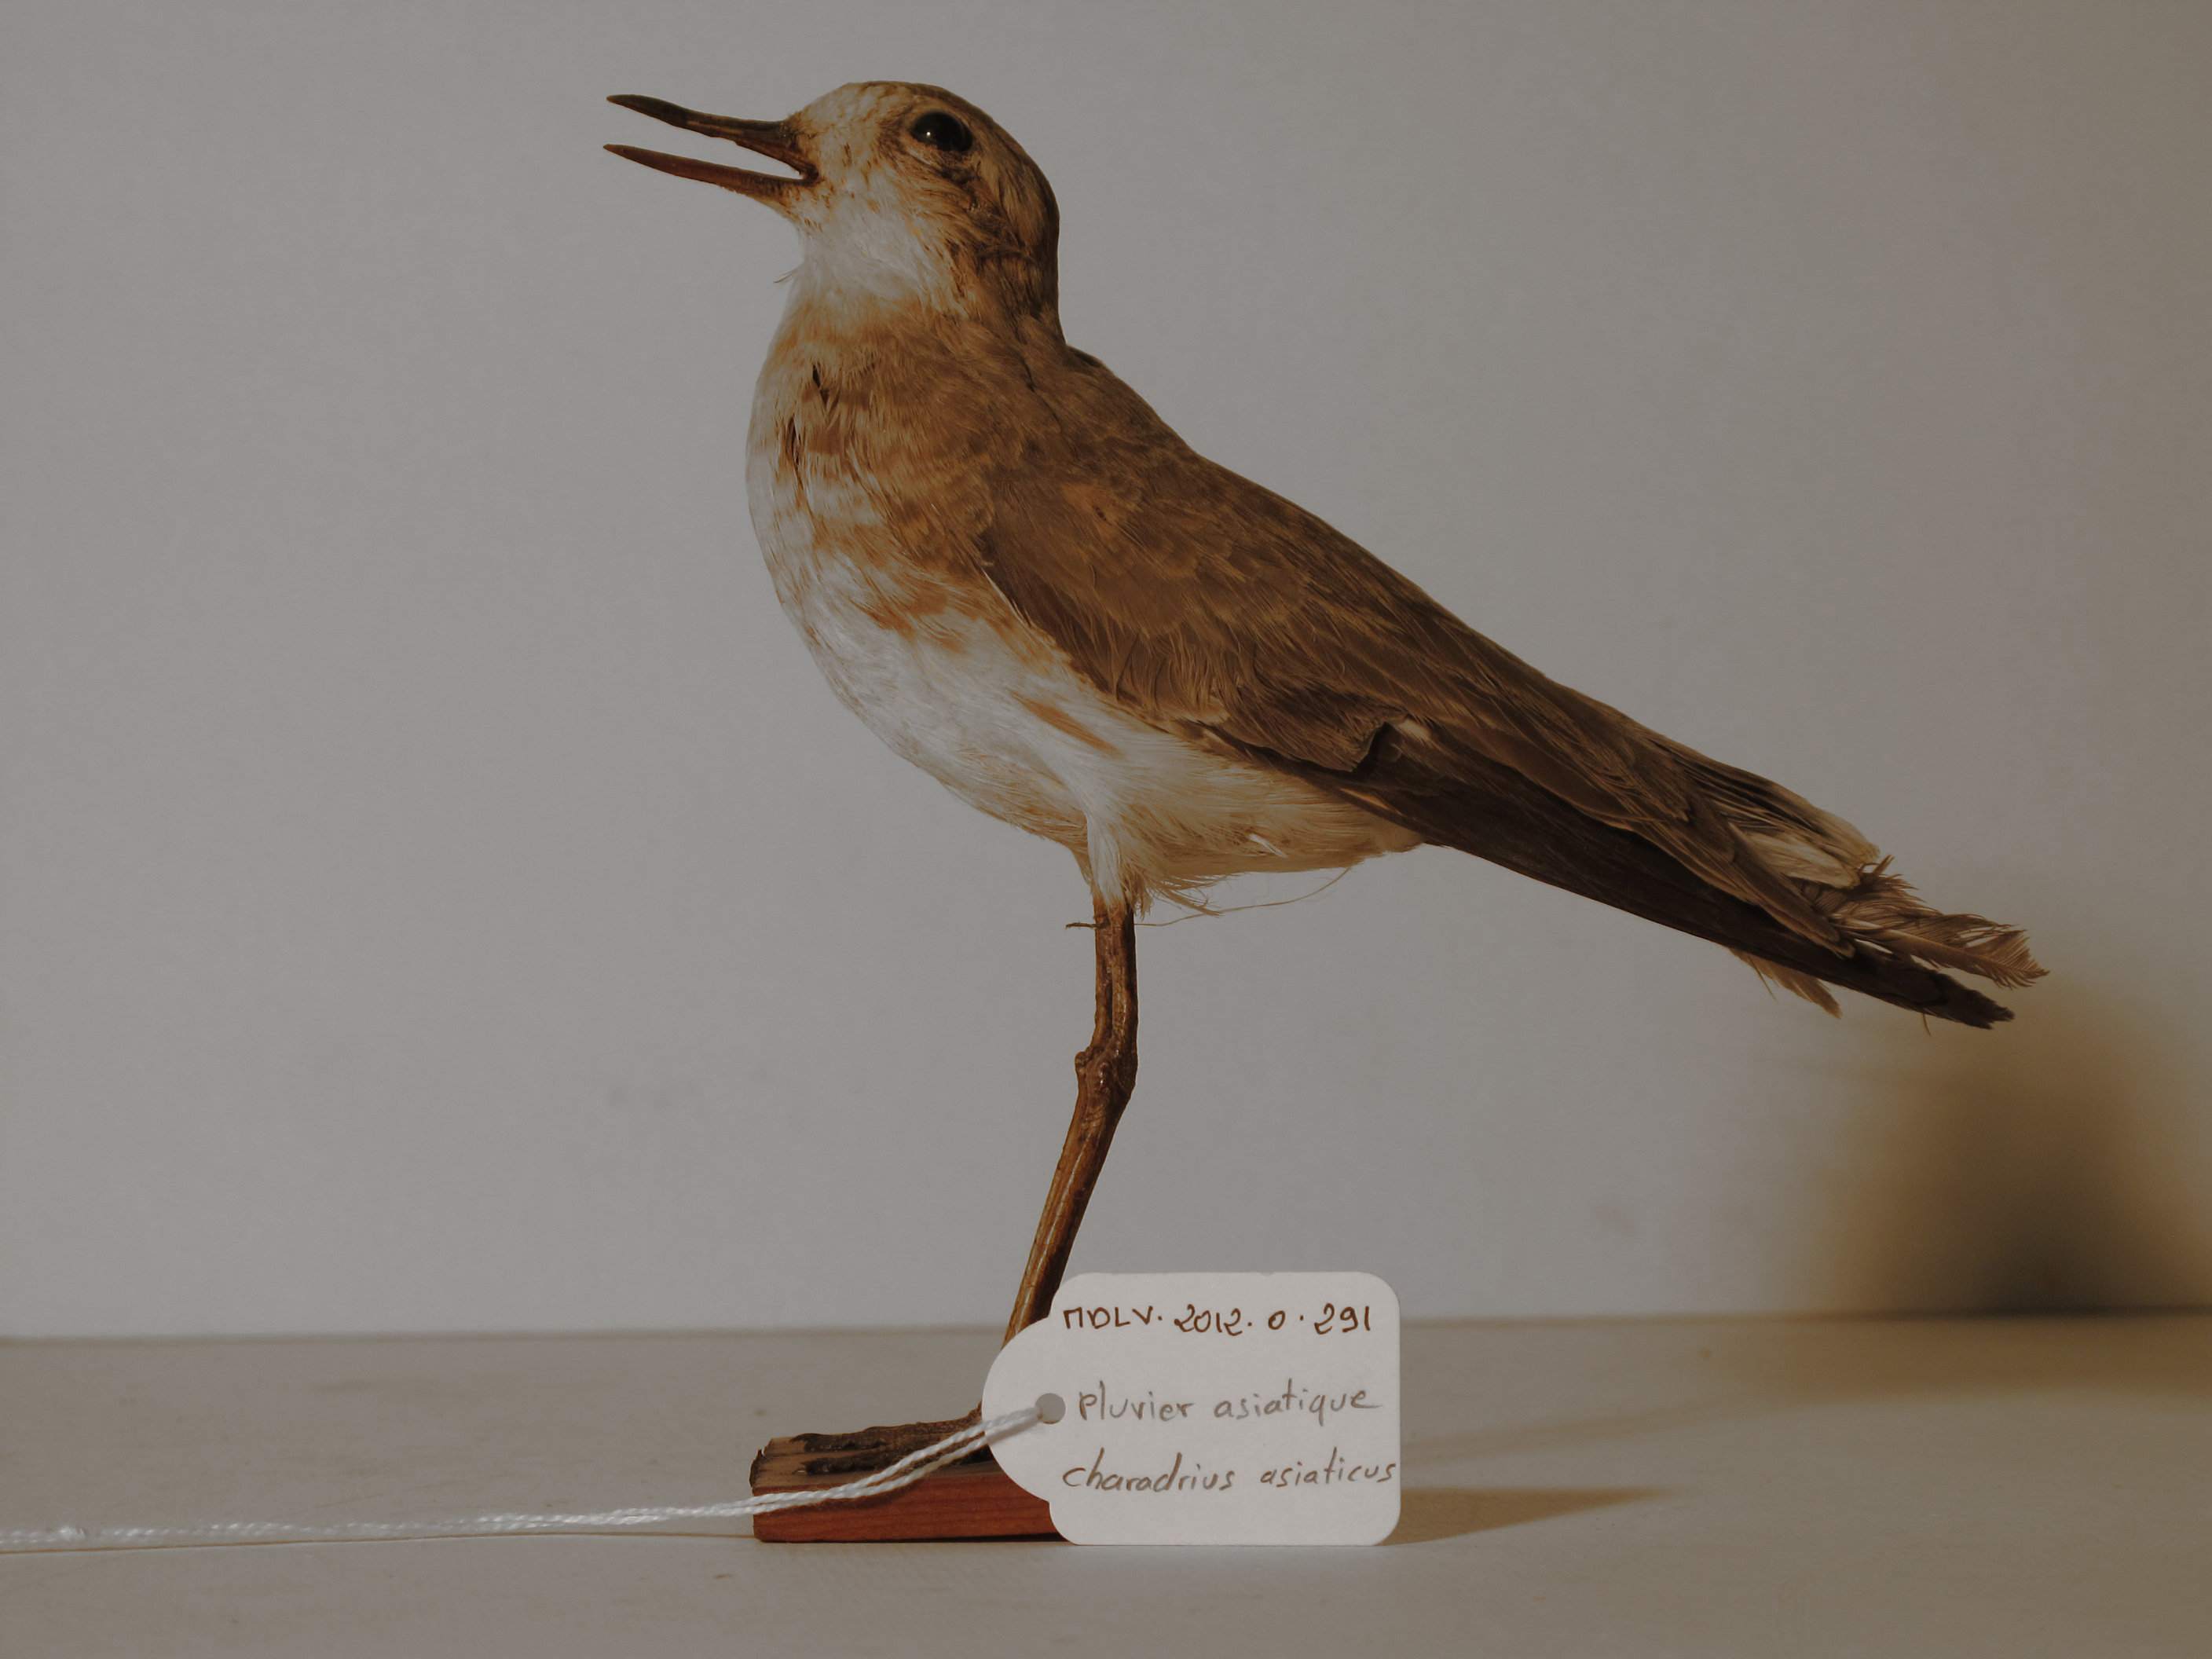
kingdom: Animalia
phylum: Chordata
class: Aves
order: Charadriiformes
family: Charadriidae
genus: Charadrius
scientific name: Charadrius asiaticus
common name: Caspian Plover
